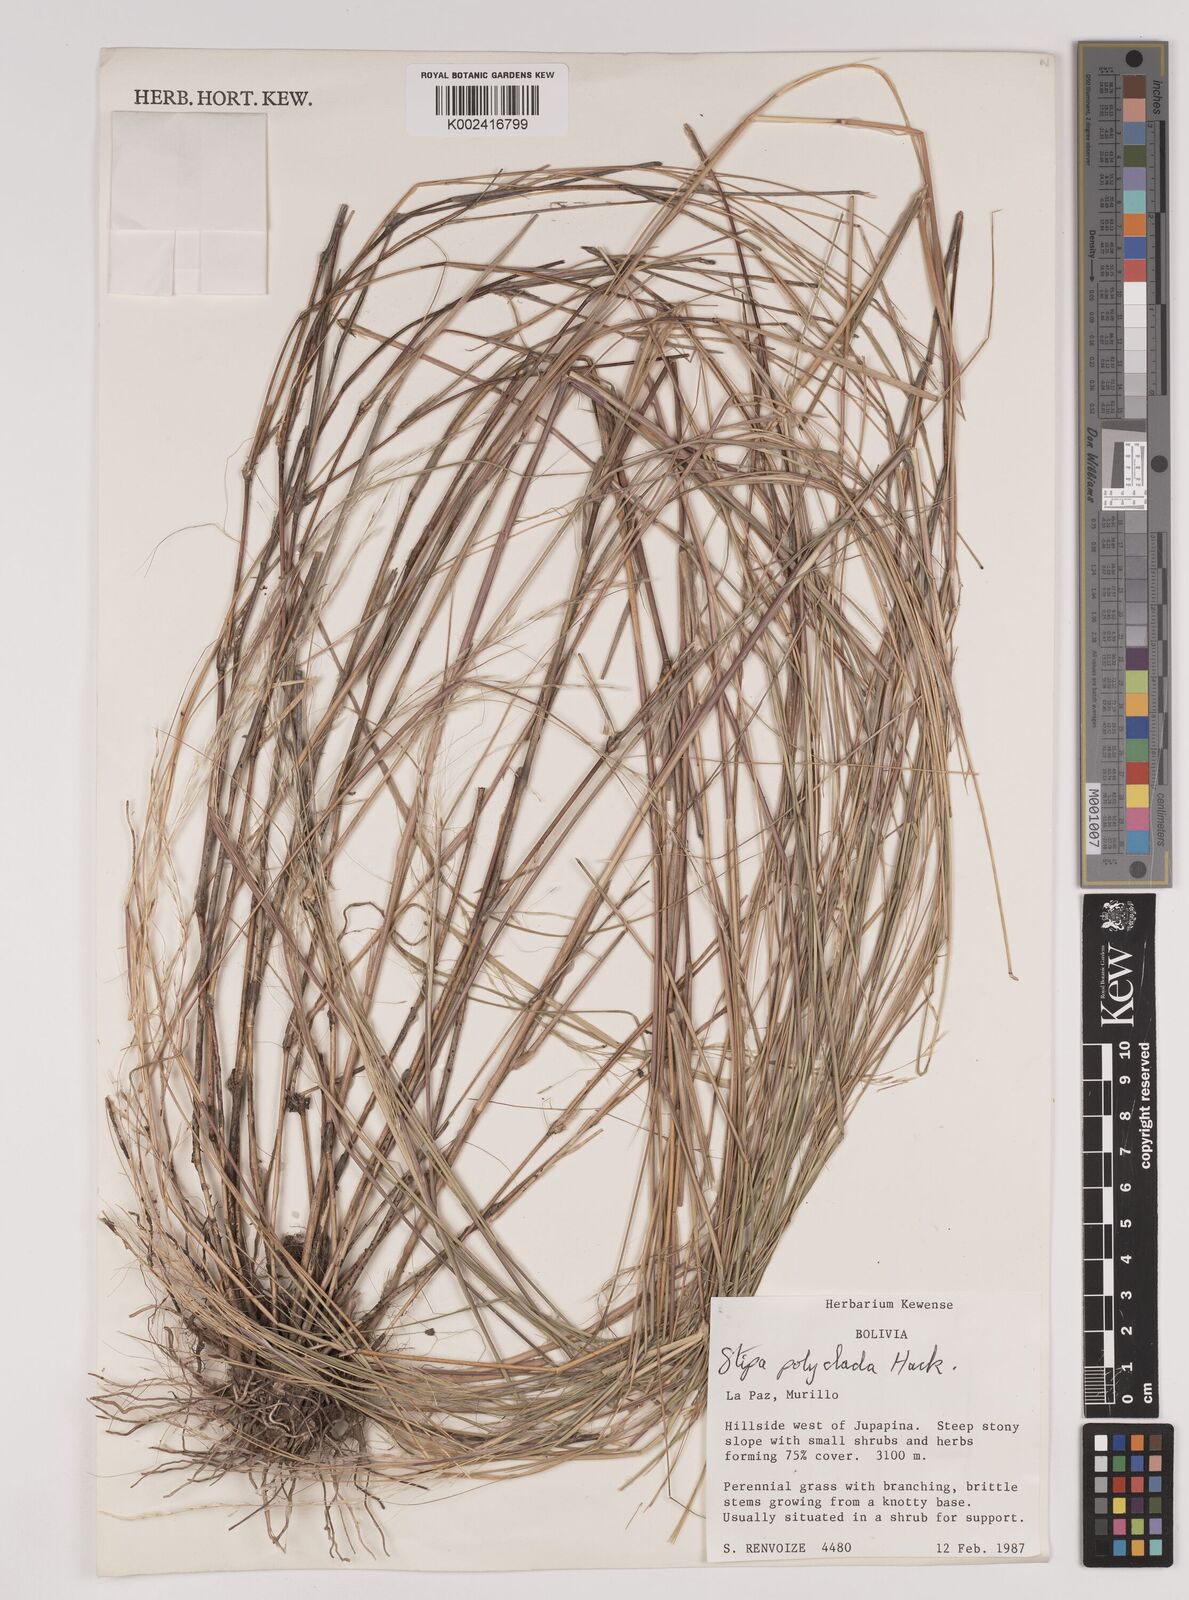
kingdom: Plantae
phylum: Tracheophyta
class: Liliopsida
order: Poales
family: Poaceae
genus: Stipa
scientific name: Stipa illimanica
